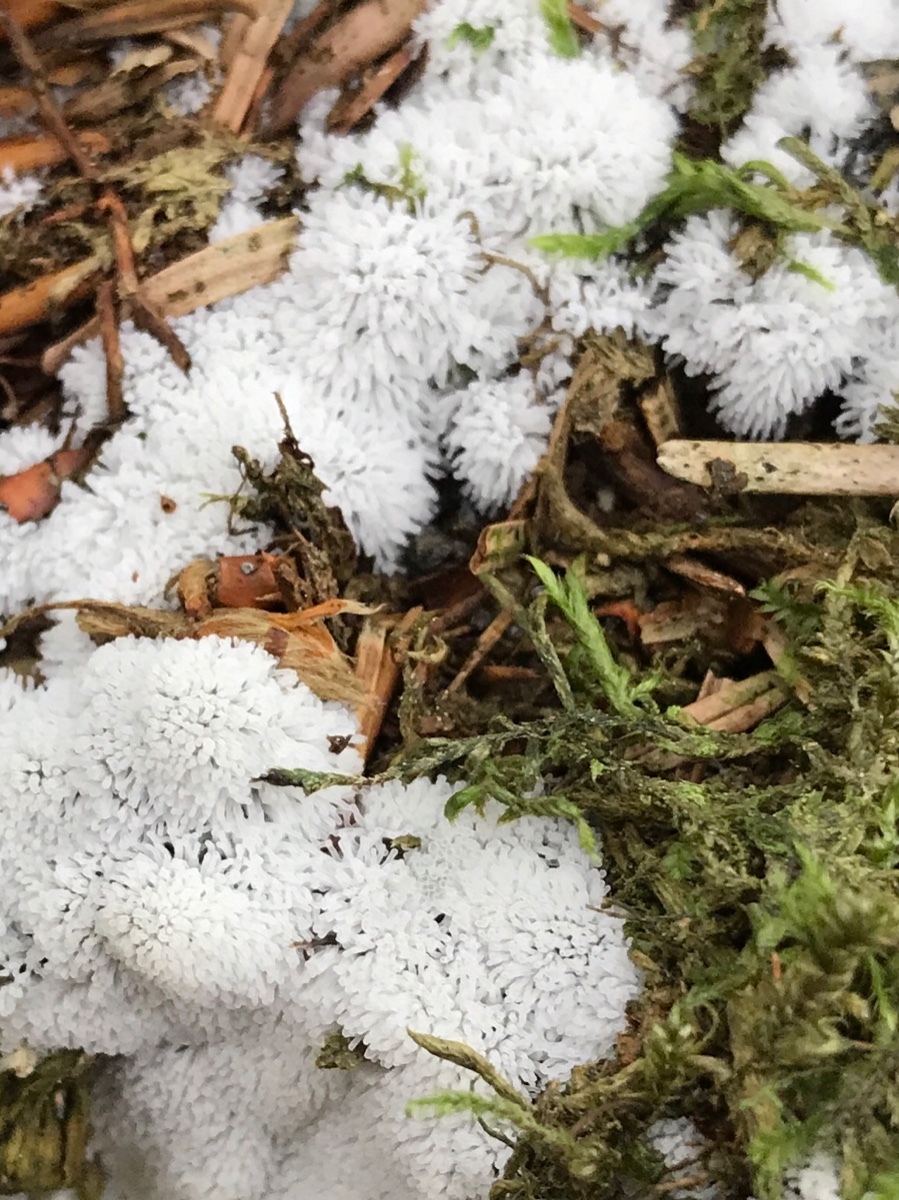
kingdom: Protozoa
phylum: Mycetozoa
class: Protosteliomycetes
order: Ceratiomyxales
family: Ceratiomyxaceae
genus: Ceratiomyxa
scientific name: Ceratiomyxa fruticulosa
